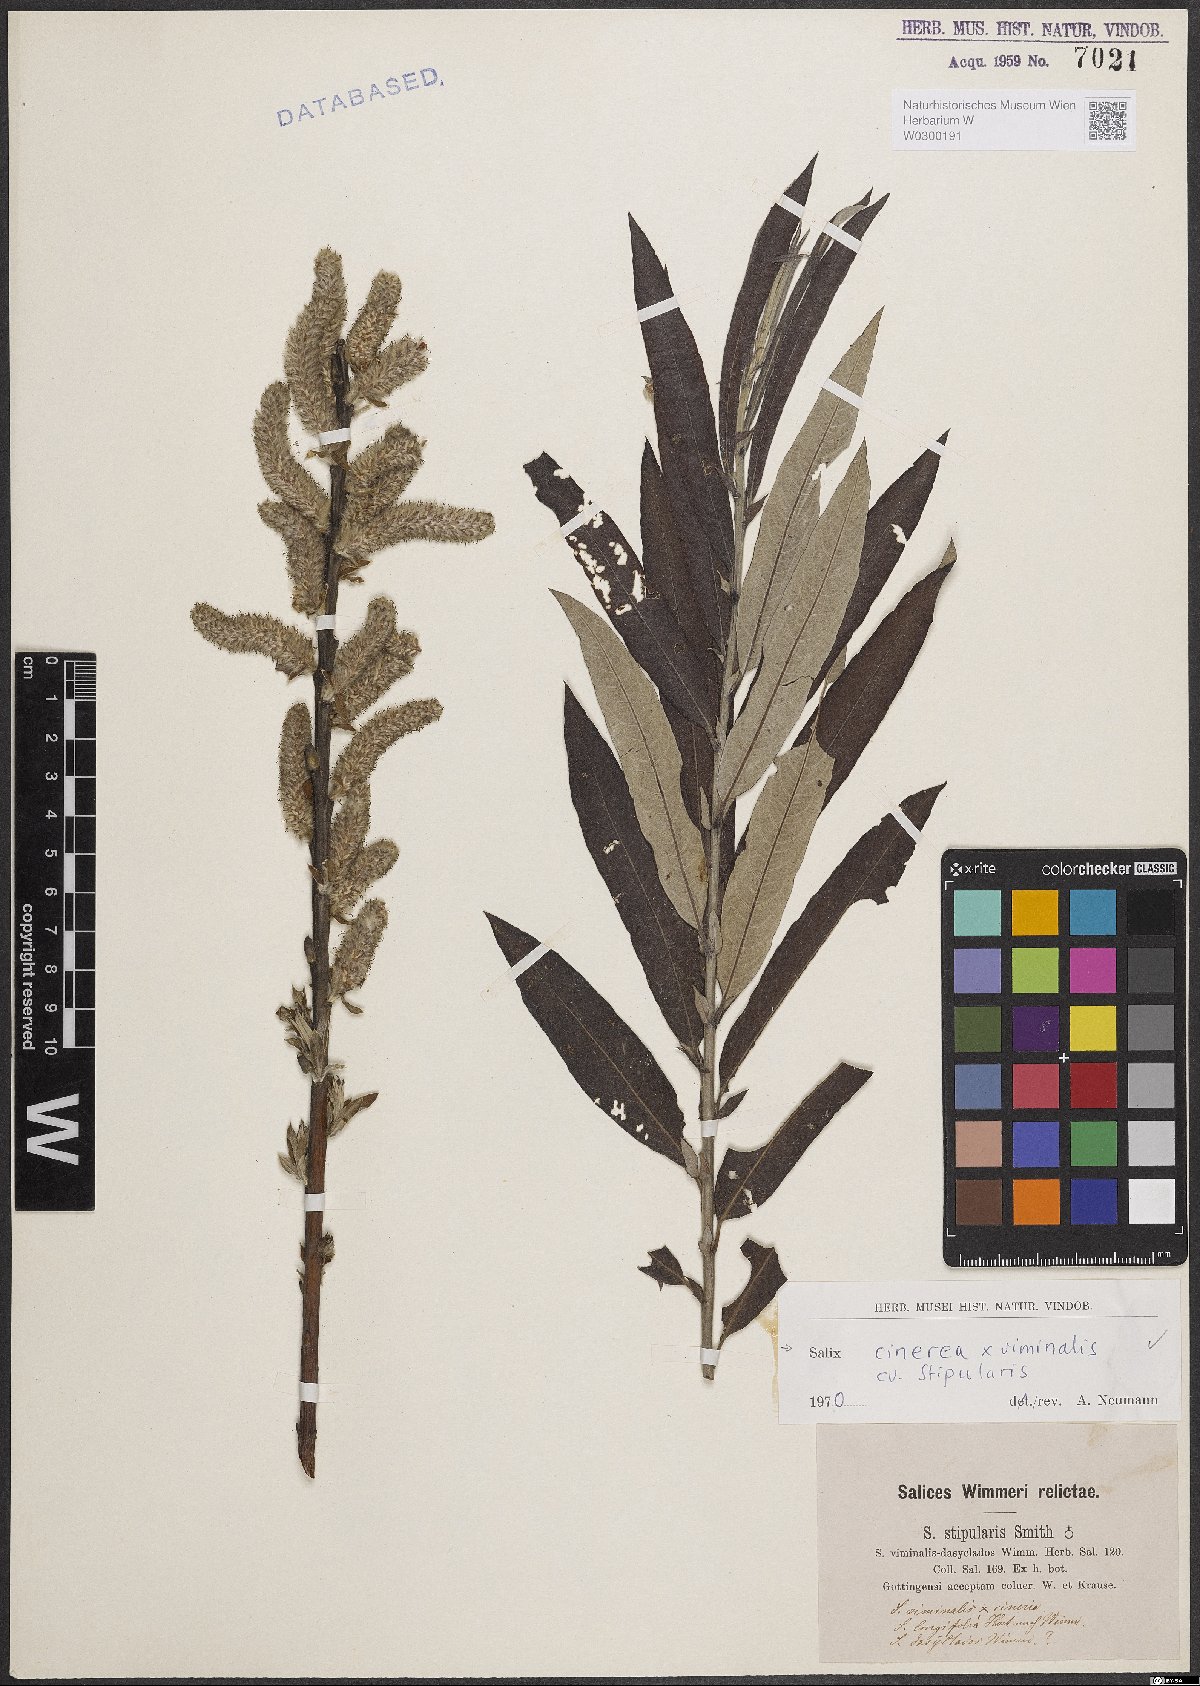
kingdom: Plantae
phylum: Tracheophyta
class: Magnoliopsida
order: Malpighiales
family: Salicaceae
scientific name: Salicaceae
